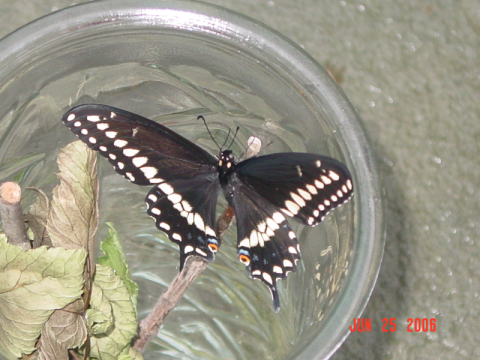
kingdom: Animalia
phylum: Arthropoda
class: Insecta
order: Lepidoptera
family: Papilionidae
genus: Papilio
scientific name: Papilio polyxenes
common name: Black Swallowtail
